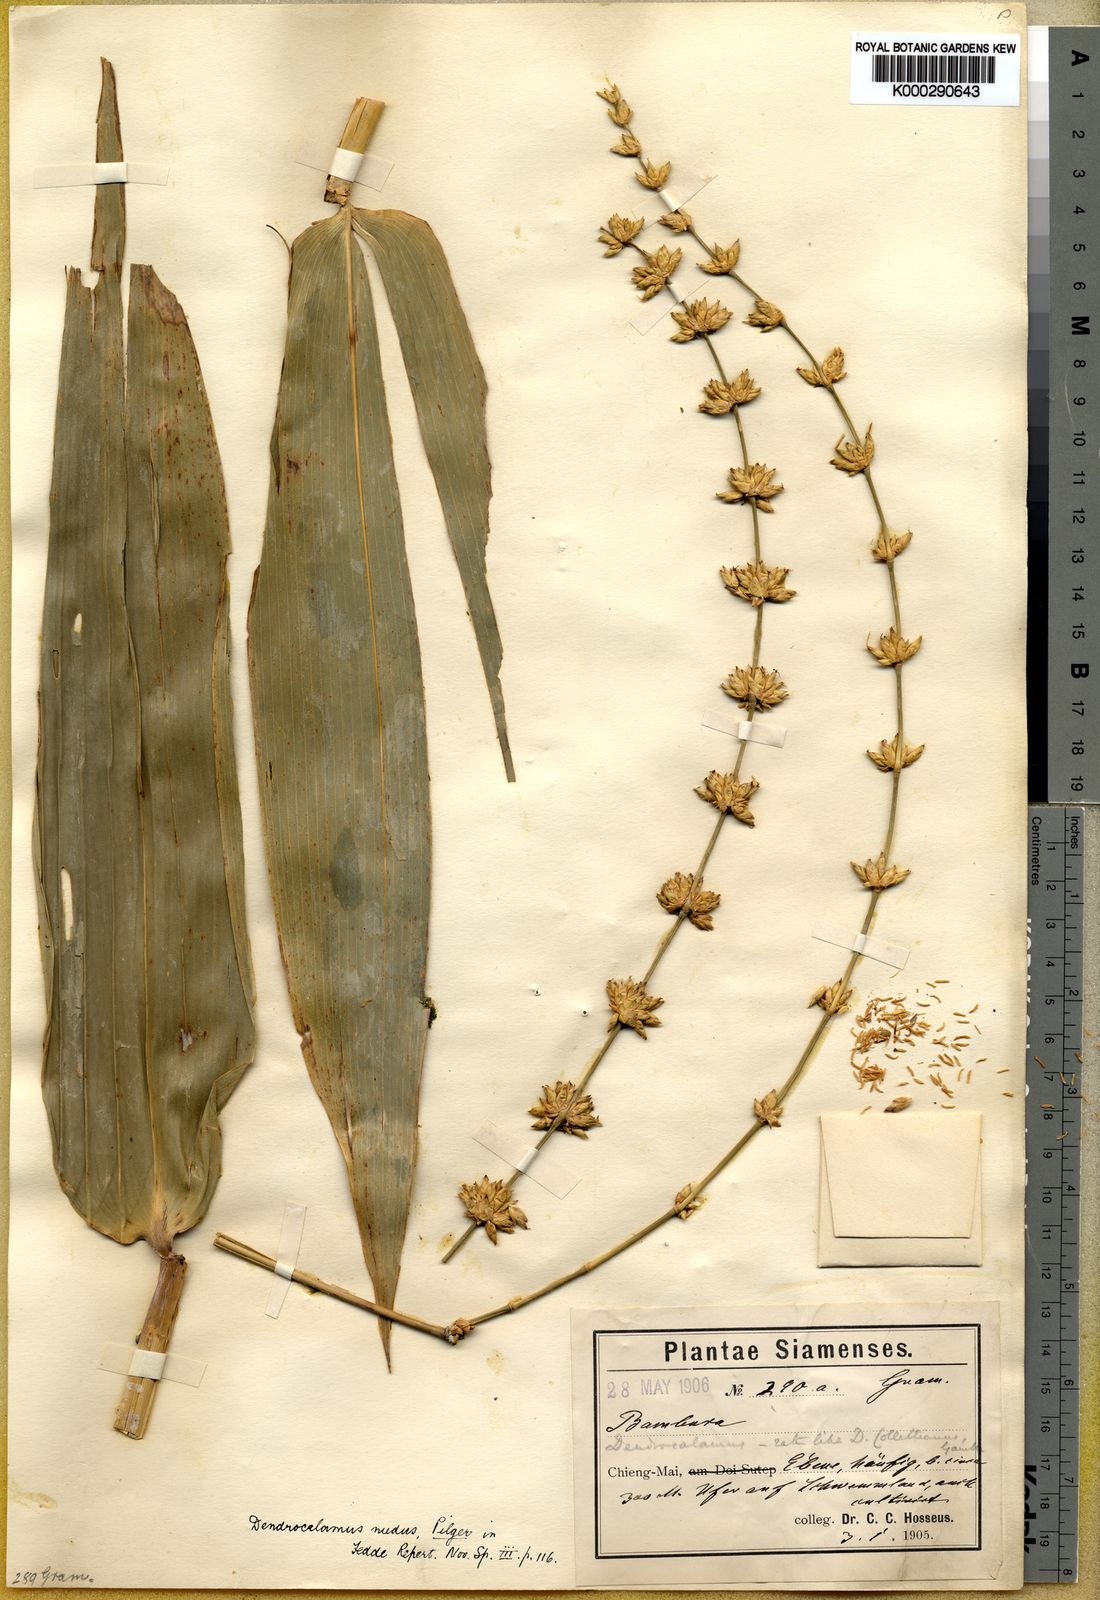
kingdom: Plantae
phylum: Tracheophyta
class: Liliopsida
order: Poales
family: Poaceae
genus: Dendrocalamus
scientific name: Dendrocalamus brandisii
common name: Velvetleaf bamboo
